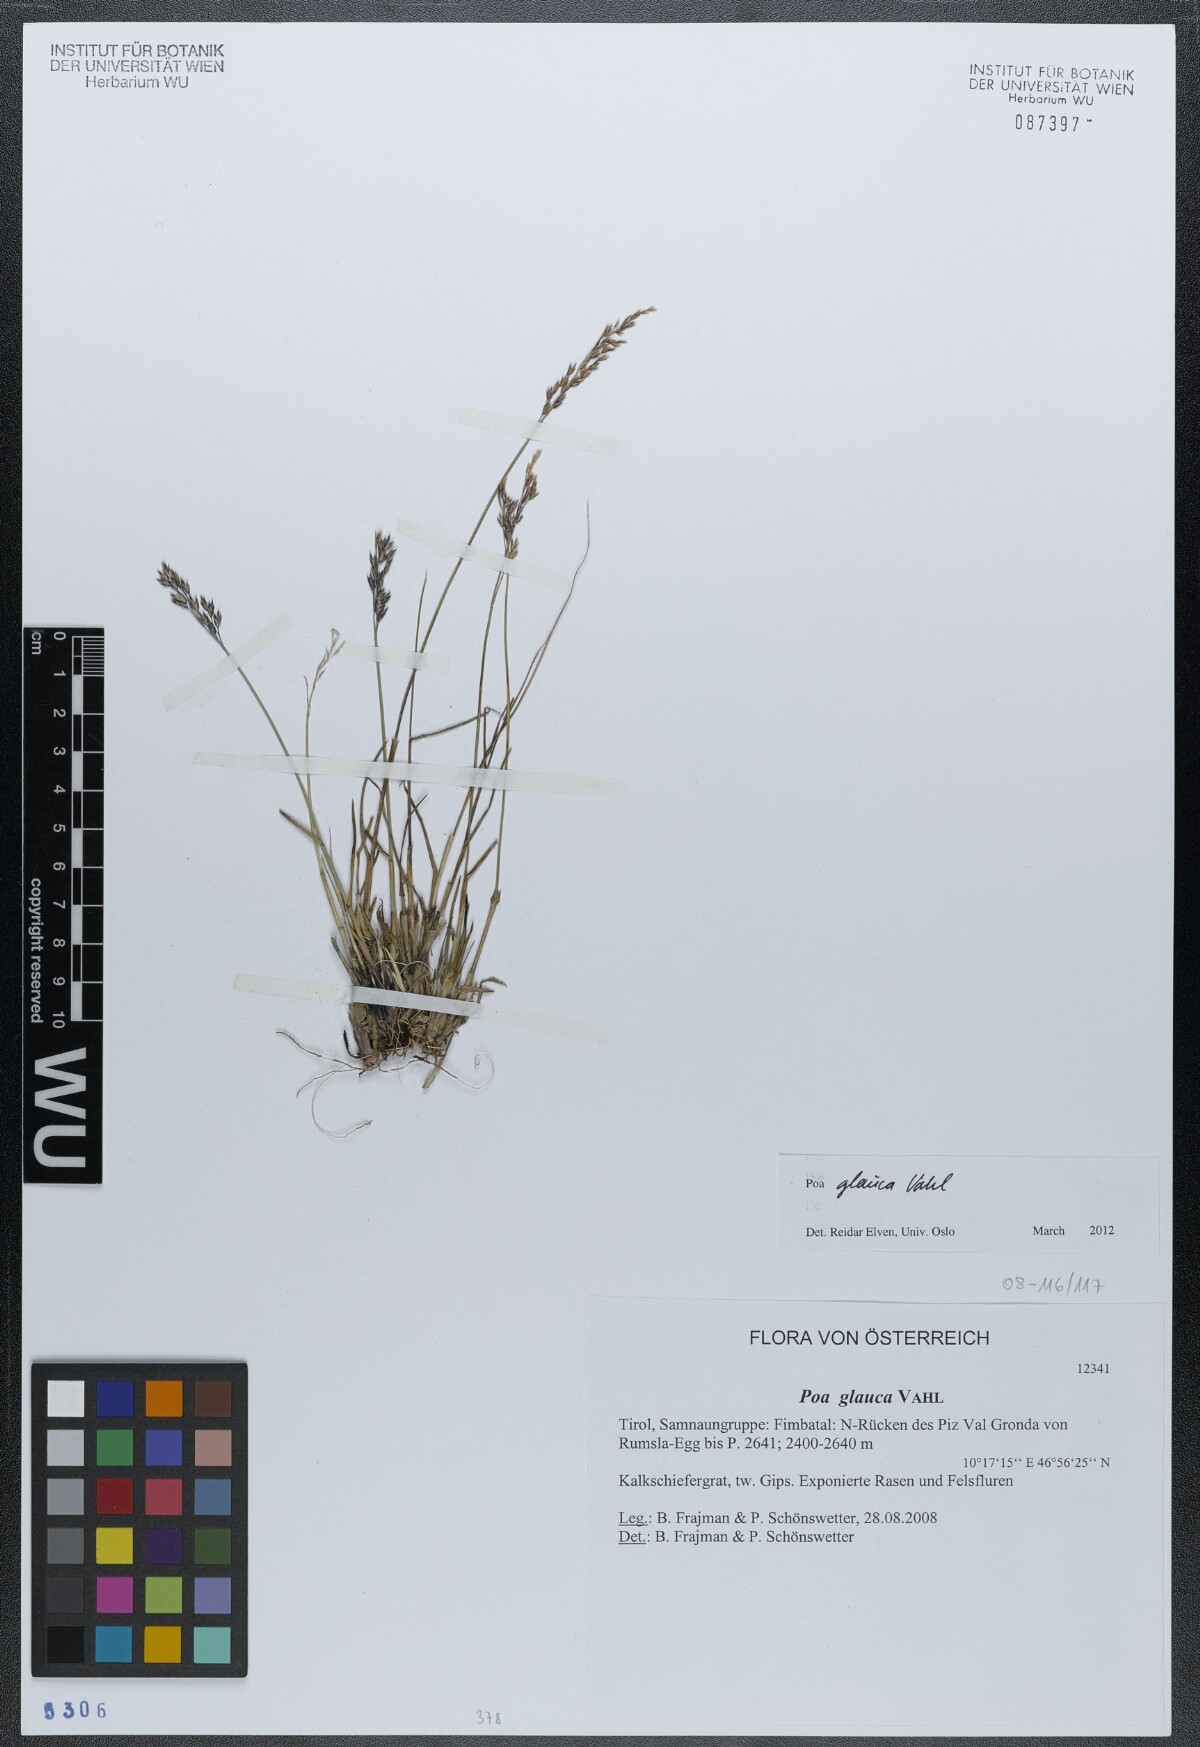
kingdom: Plantae
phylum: Tracheophyta
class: Liliopsida
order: Poales
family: Poaceae
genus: Poa
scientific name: Poa glauca
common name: Glaucous bluegrass
